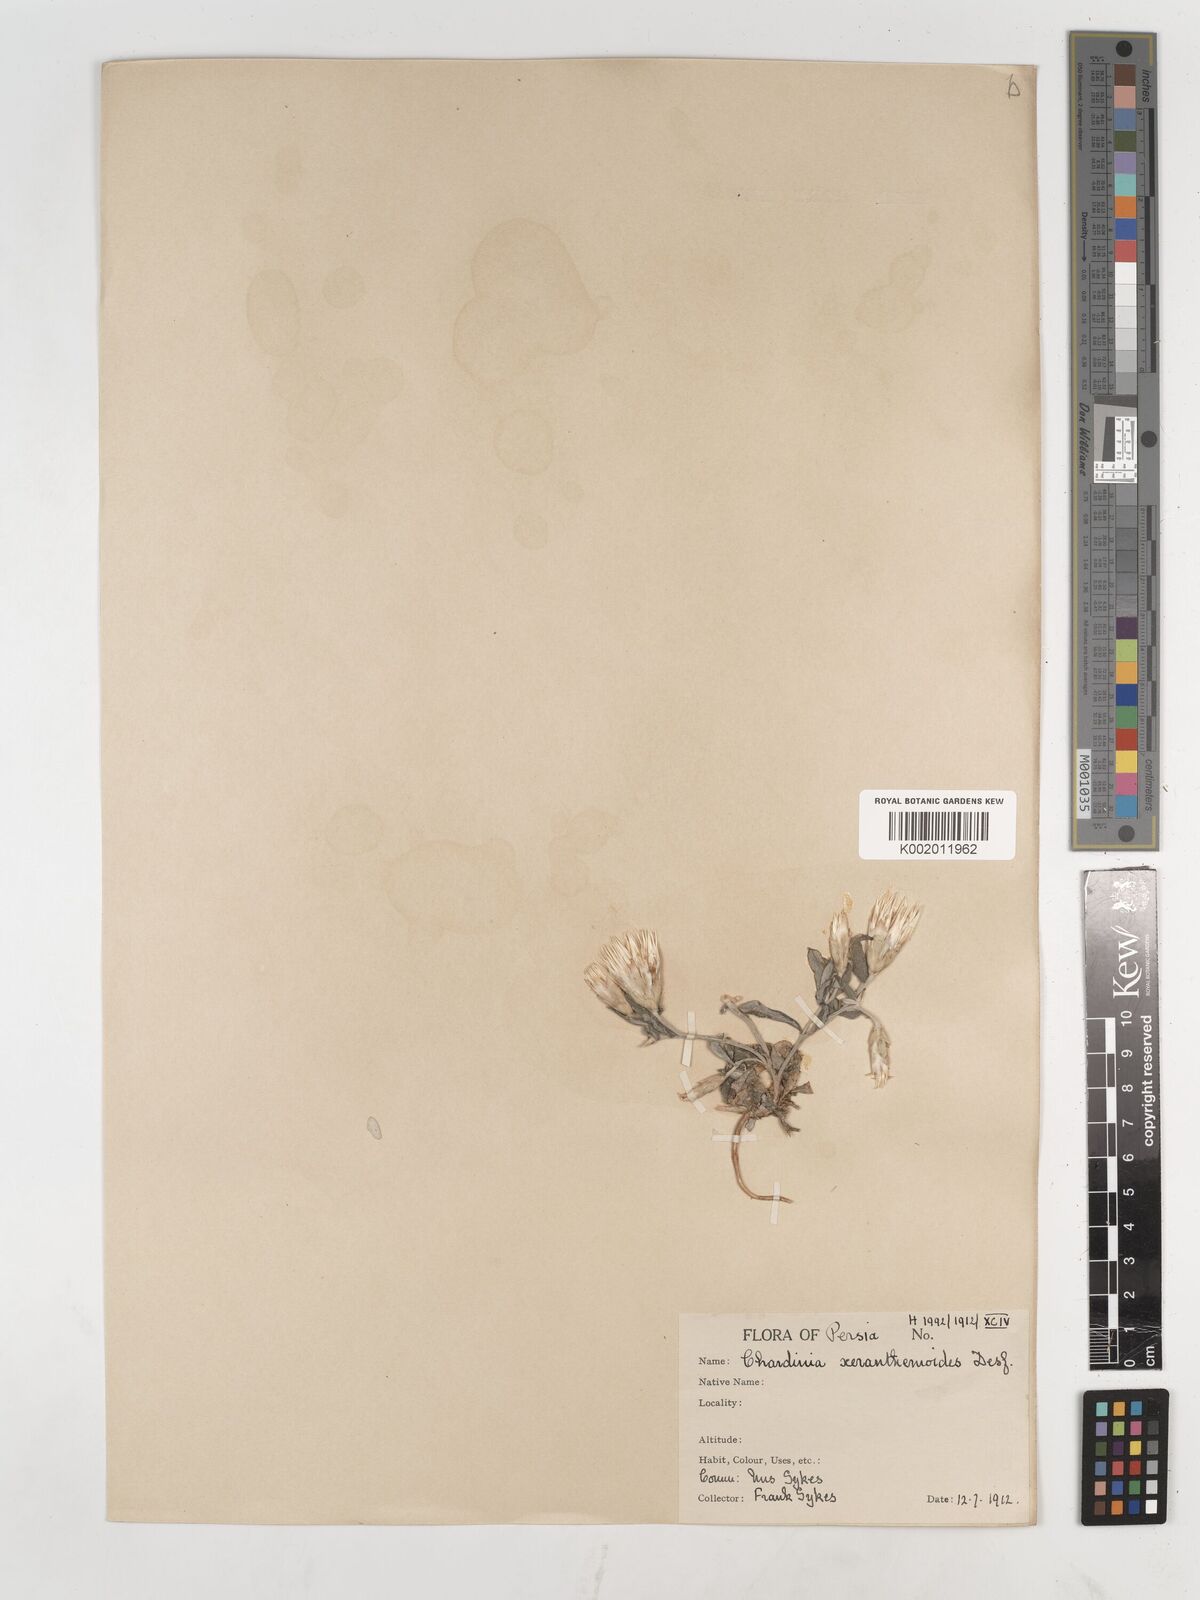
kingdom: Plantae
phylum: Tracheophyta
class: Magnoliopsida
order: Asterales
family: Asteraceae
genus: Chardinia
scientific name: Chardinia orientalis
